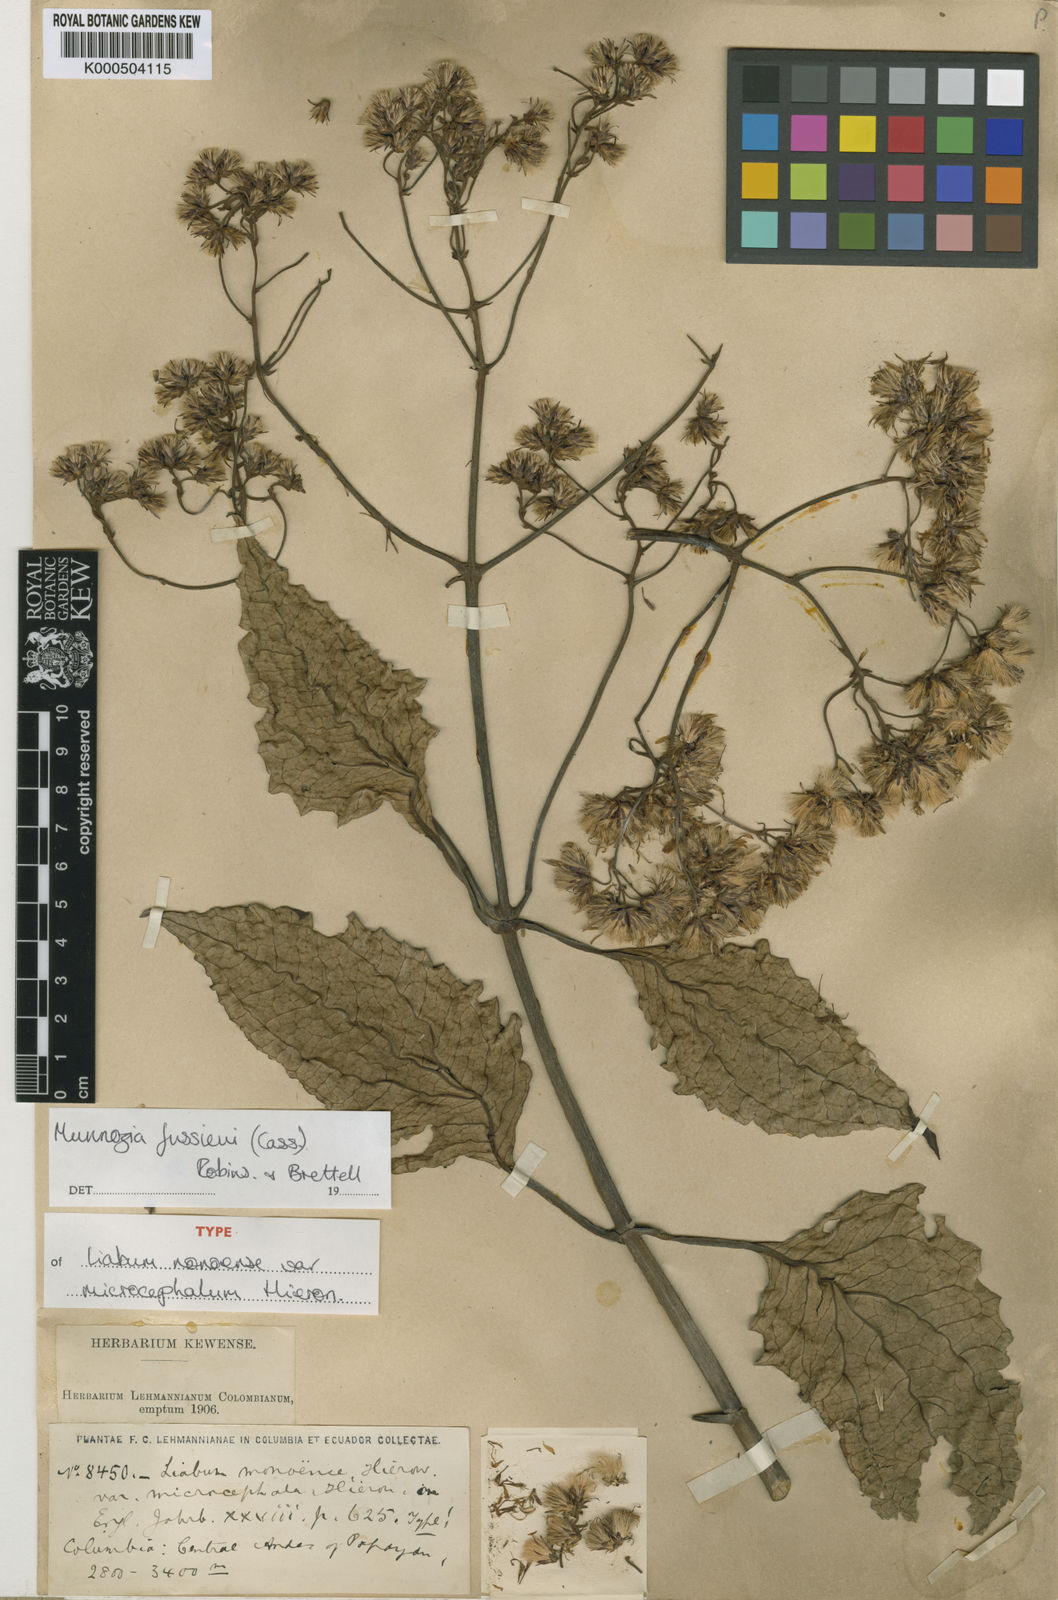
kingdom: Plantae
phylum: Tracheophyta
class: Magnoliopsida
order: Asterales
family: Asteraceae
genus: Munnozia
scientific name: Munnozia jussieui
